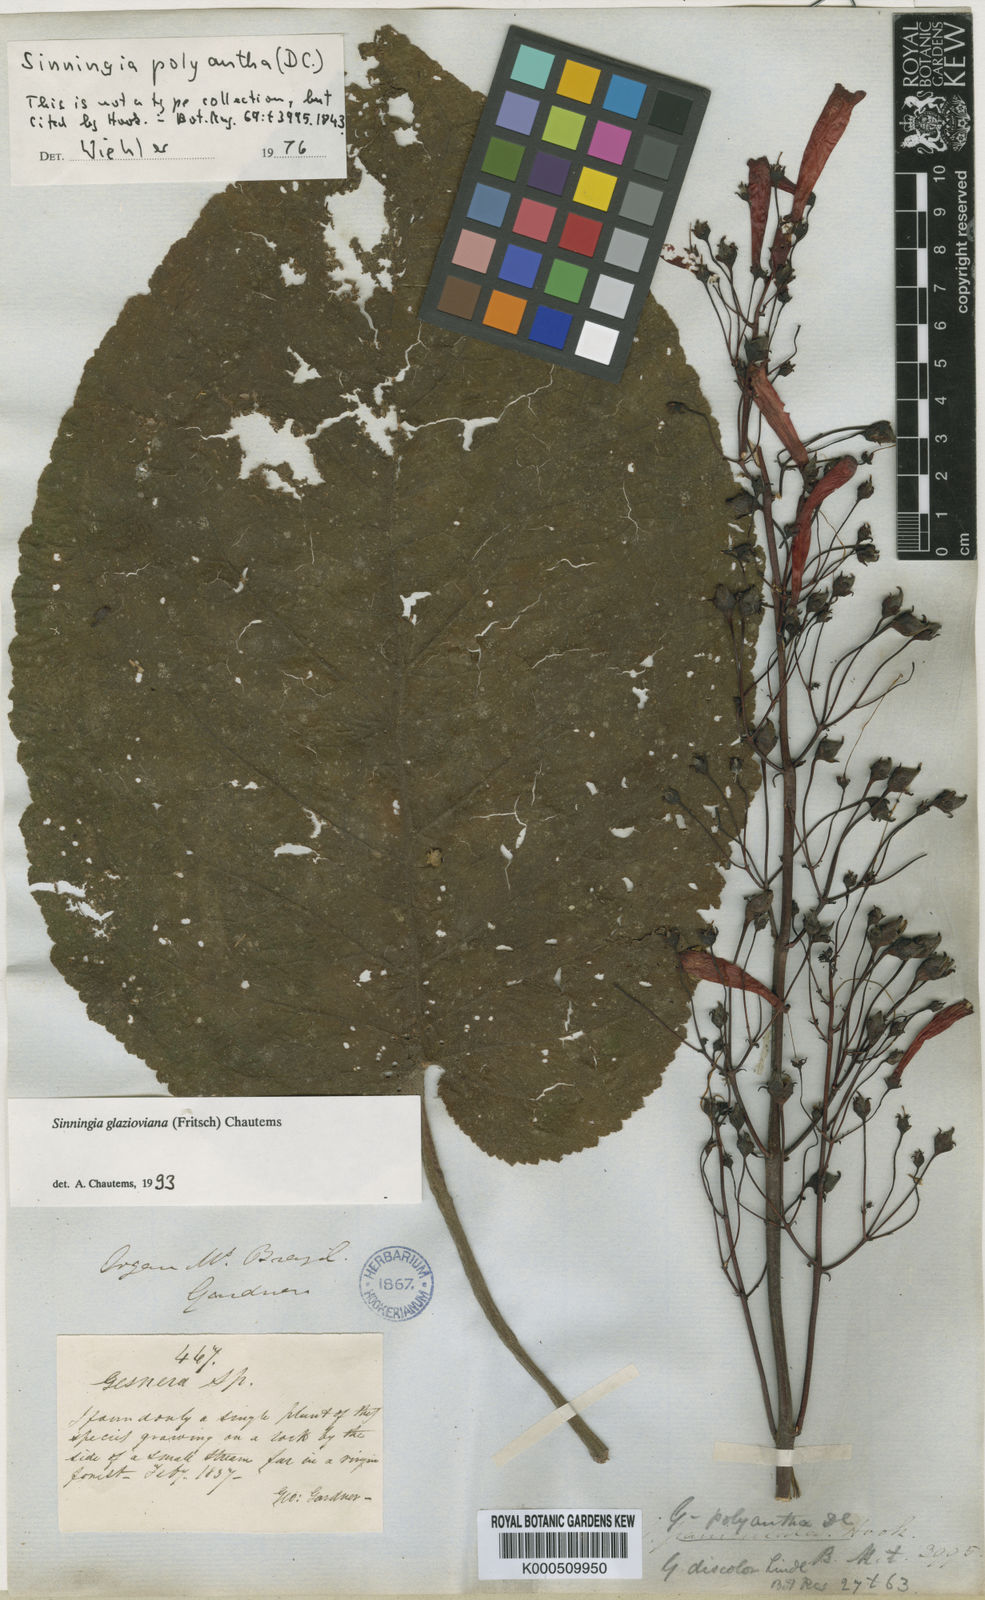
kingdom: Plantae
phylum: Tracheophyta
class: Magnoliopsida
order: Lamiales
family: Gesneriaceae
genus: Sinningia
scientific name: Sinningia gigantifolia
